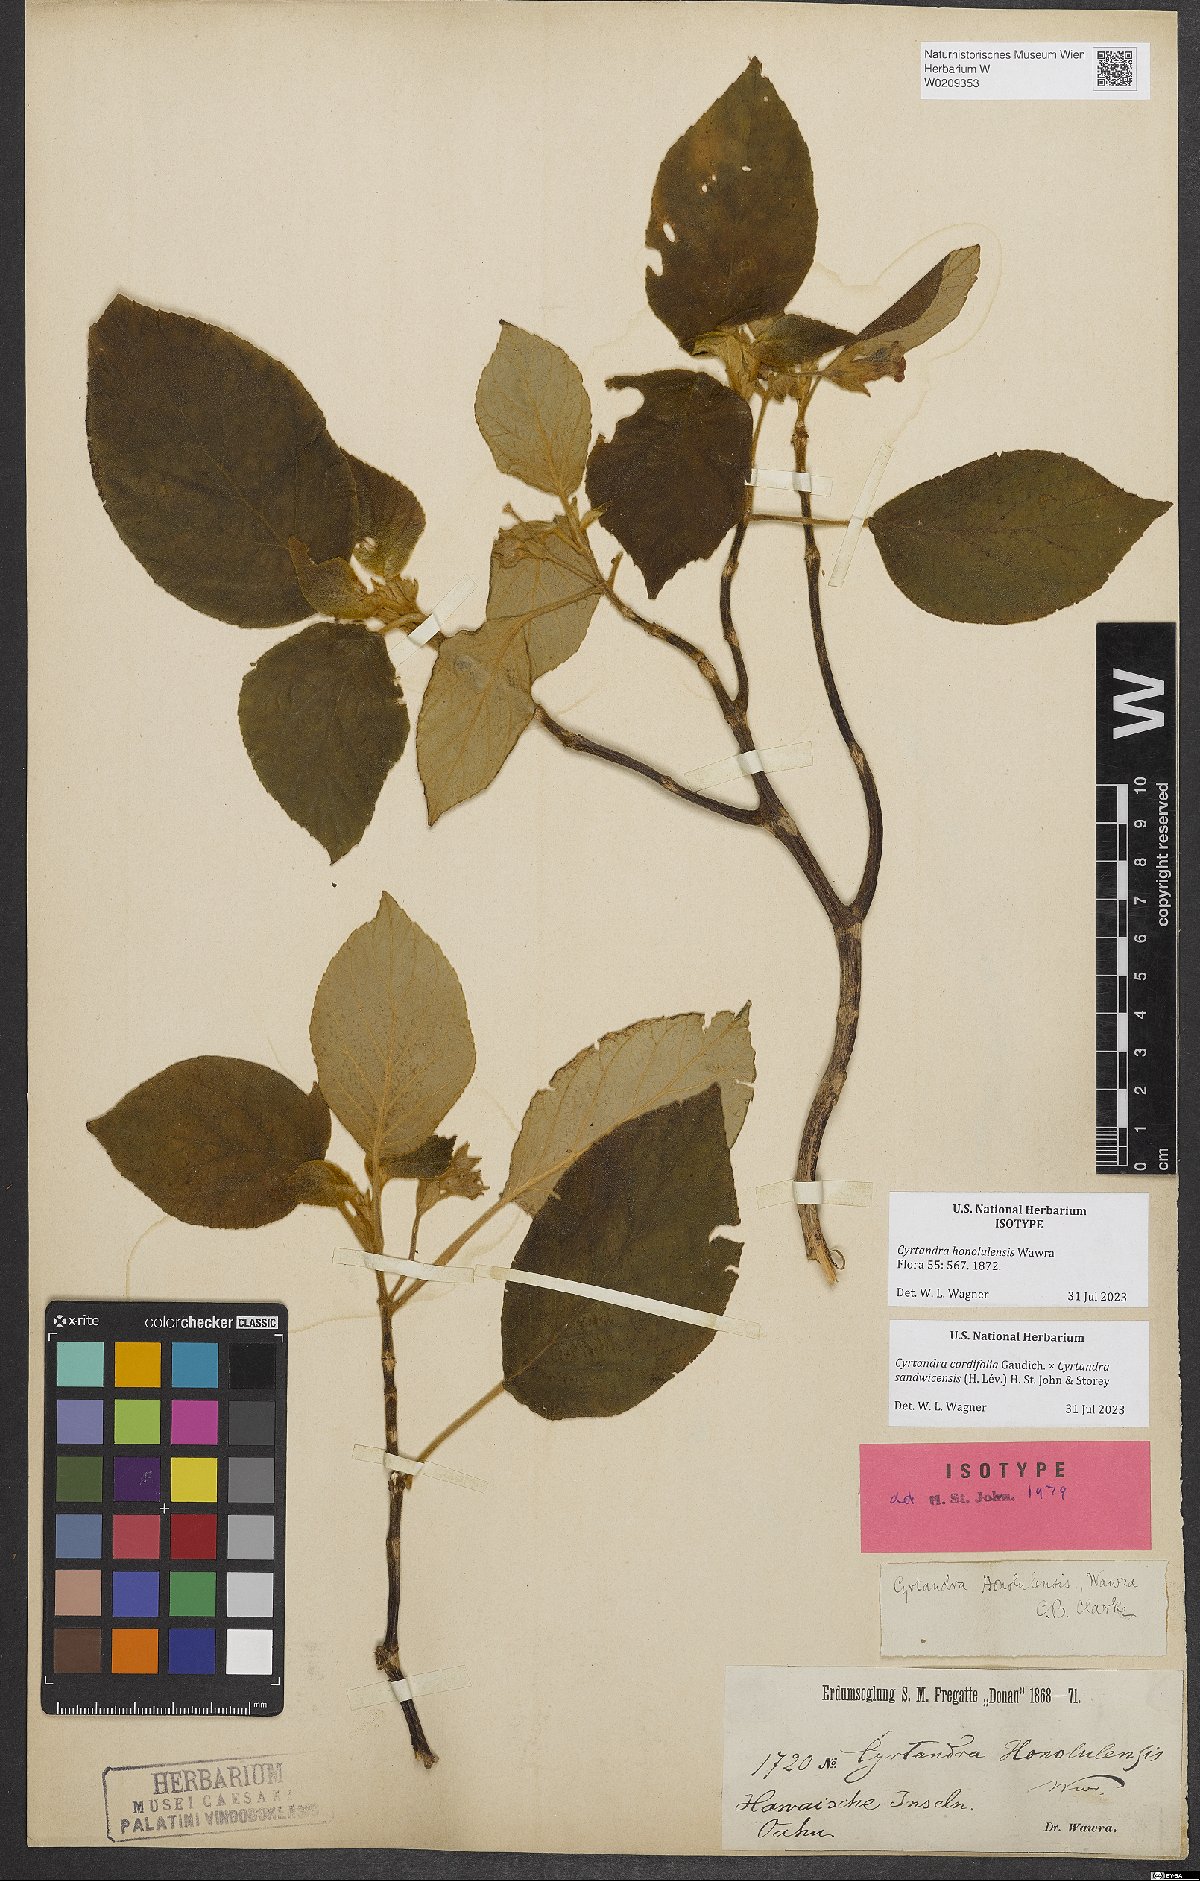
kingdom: Plantae
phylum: Tracheophyta
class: Magnoliopsida
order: Lamiales
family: Gesneriaceae
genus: Cyrtandra
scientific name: Cyrtandra honolulensis
